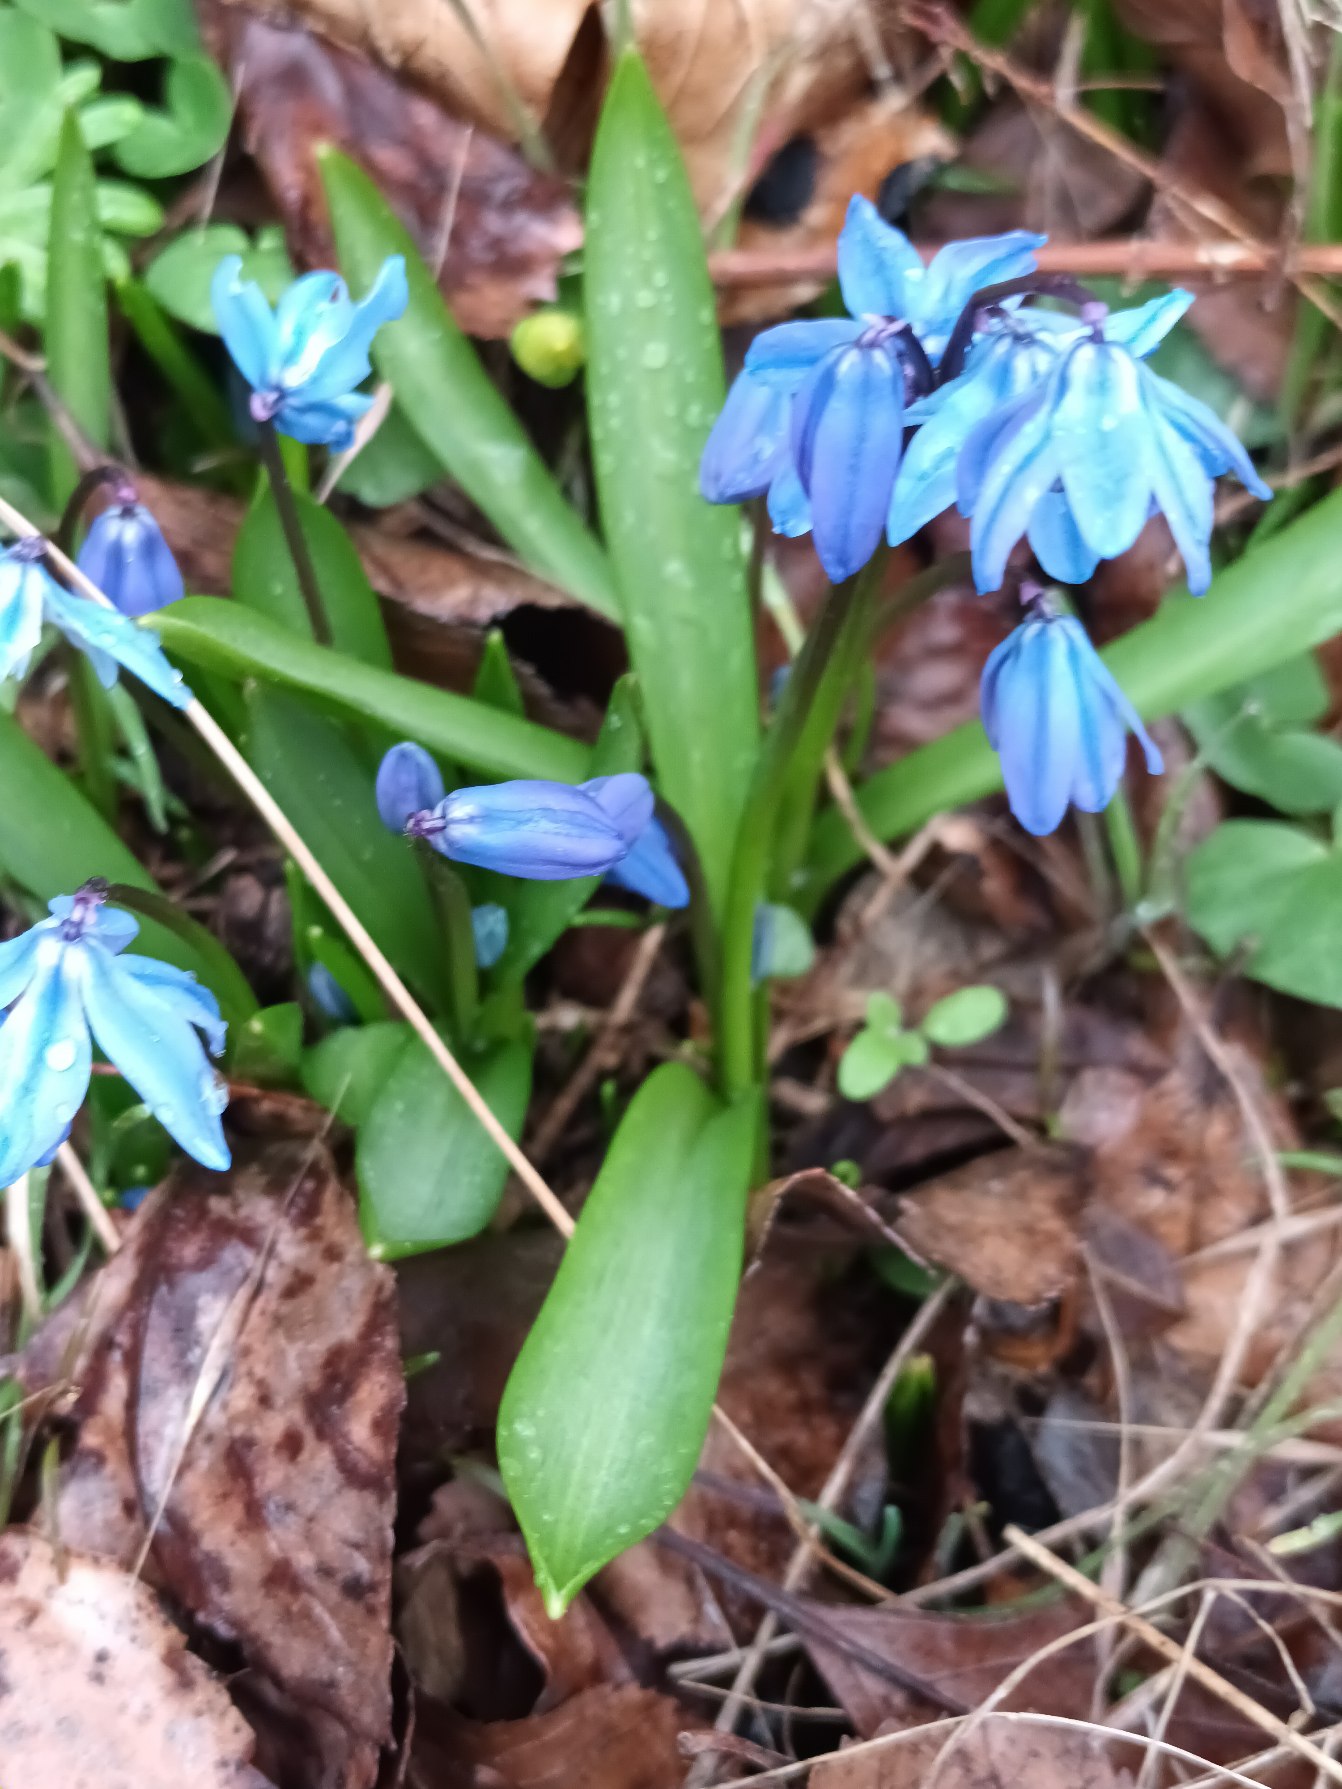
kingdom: Plantae
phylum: Tracheophyta
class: Liliopsida
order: Asparagales
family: Asparagaceae
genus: Scilla
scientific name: Scilla siberica
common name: Russisk skilla
